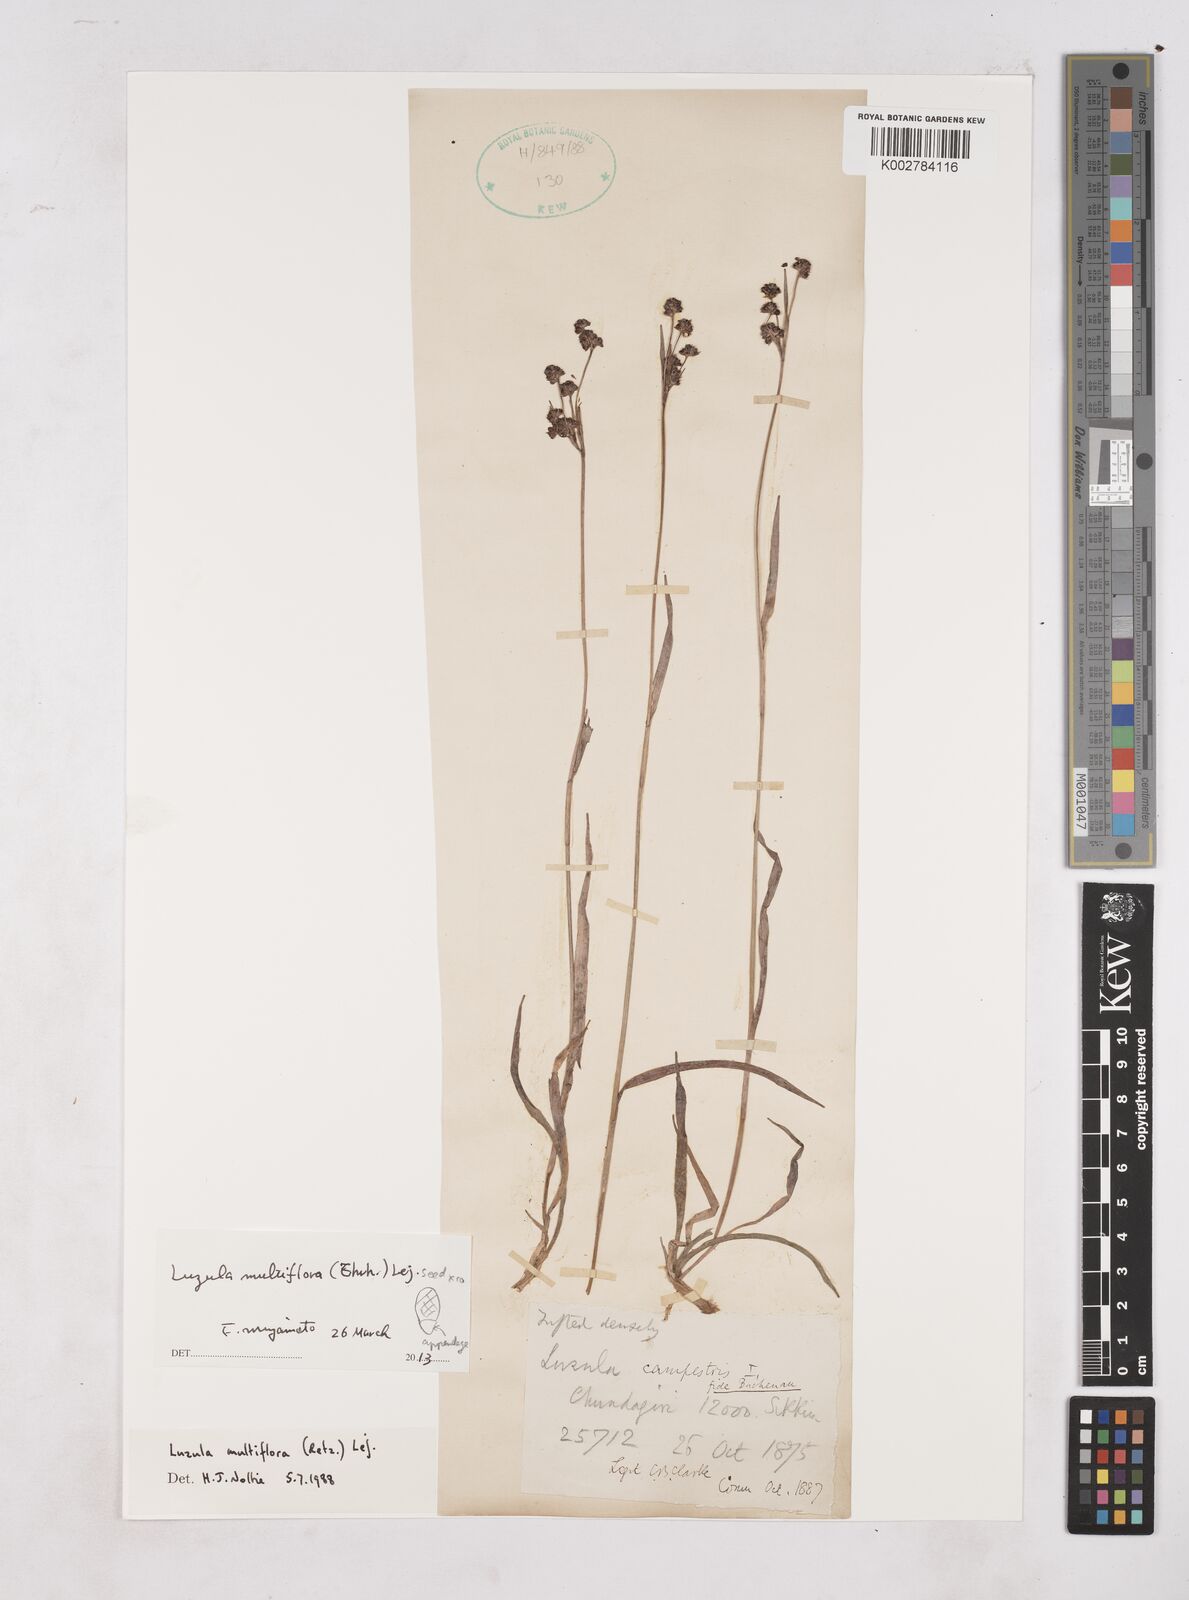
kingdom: Plantae
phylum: Tracheophyta
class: Liliopsida
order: Poales
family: Juncaceae
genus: Luzula
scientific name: Luzula multiflora
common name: Heath wood-rush
